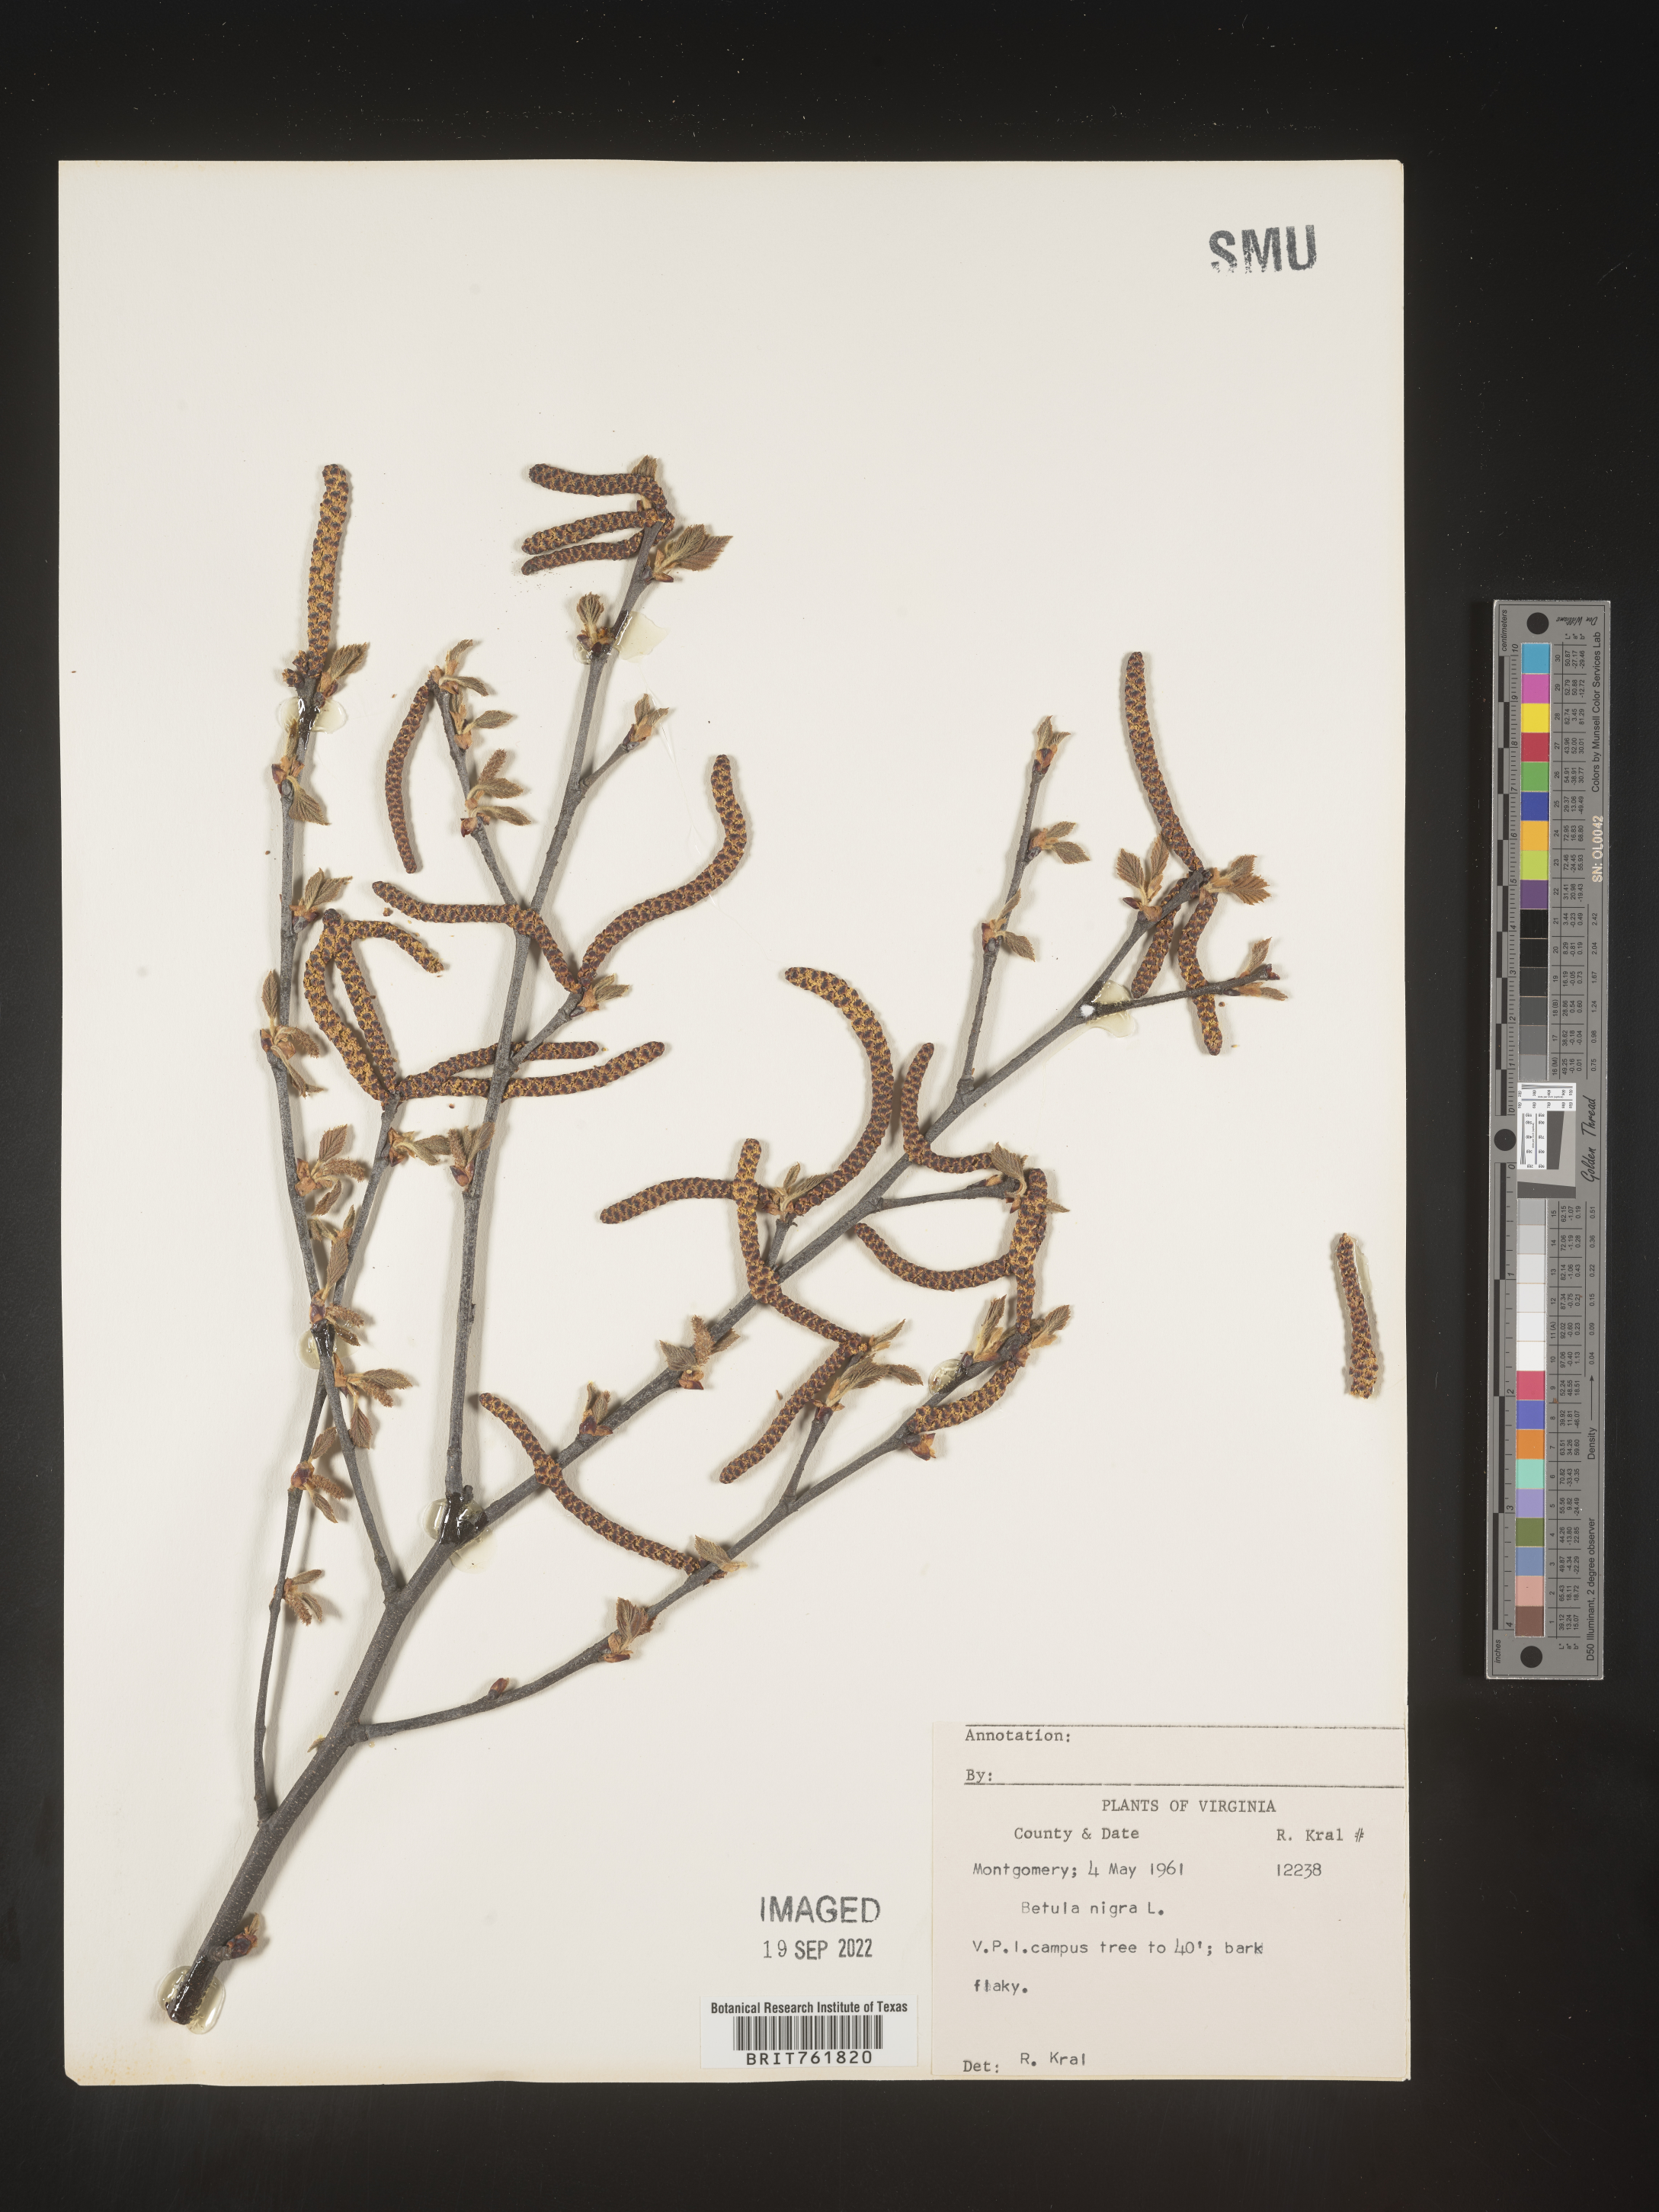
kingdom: Plantae
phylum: Tracheophyta
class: Magnoliopsida
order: Fagales
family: Betulaceae
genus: Betula
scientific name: Betula nigra
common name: Black birch
